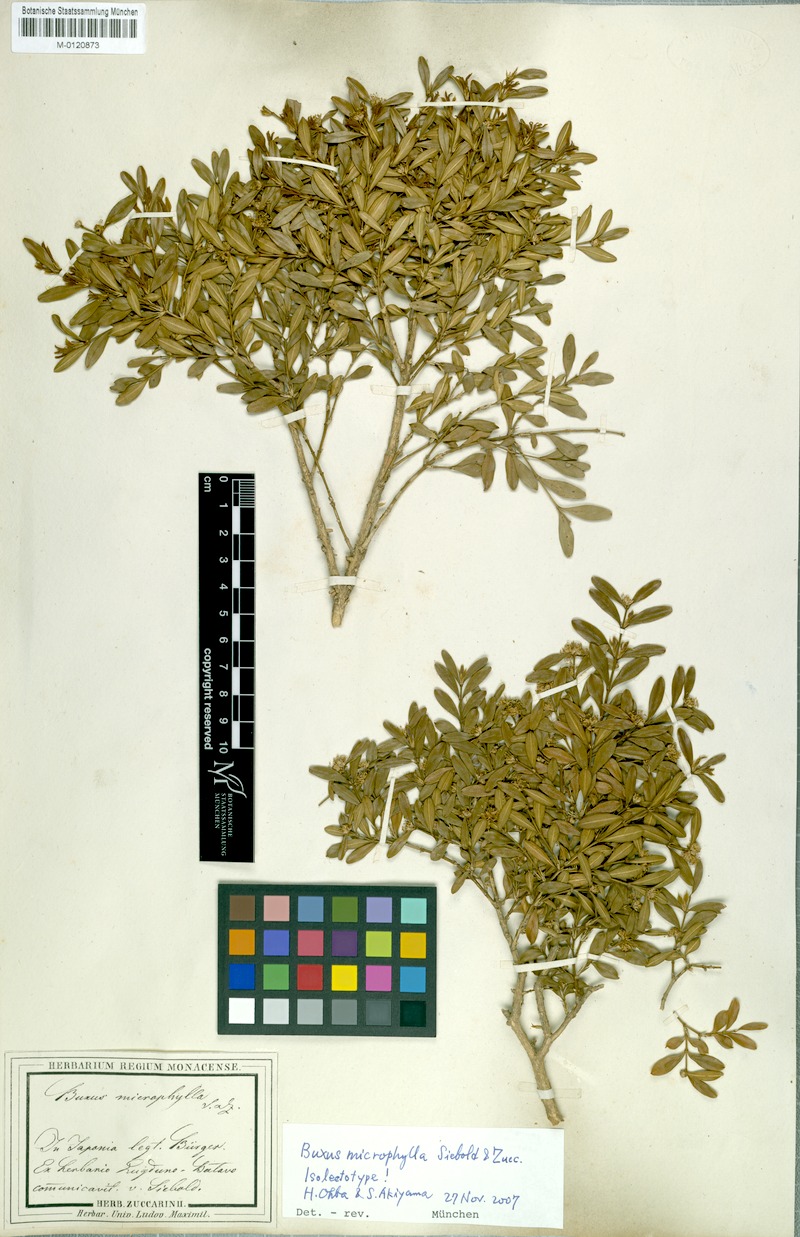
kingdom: Plantae
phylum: Tracheophyta
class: Magnoliopsida
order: Buxales
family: Buxaceae
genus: Buxus
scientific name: Buxus microphylla
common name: Littleleaf boxwood
